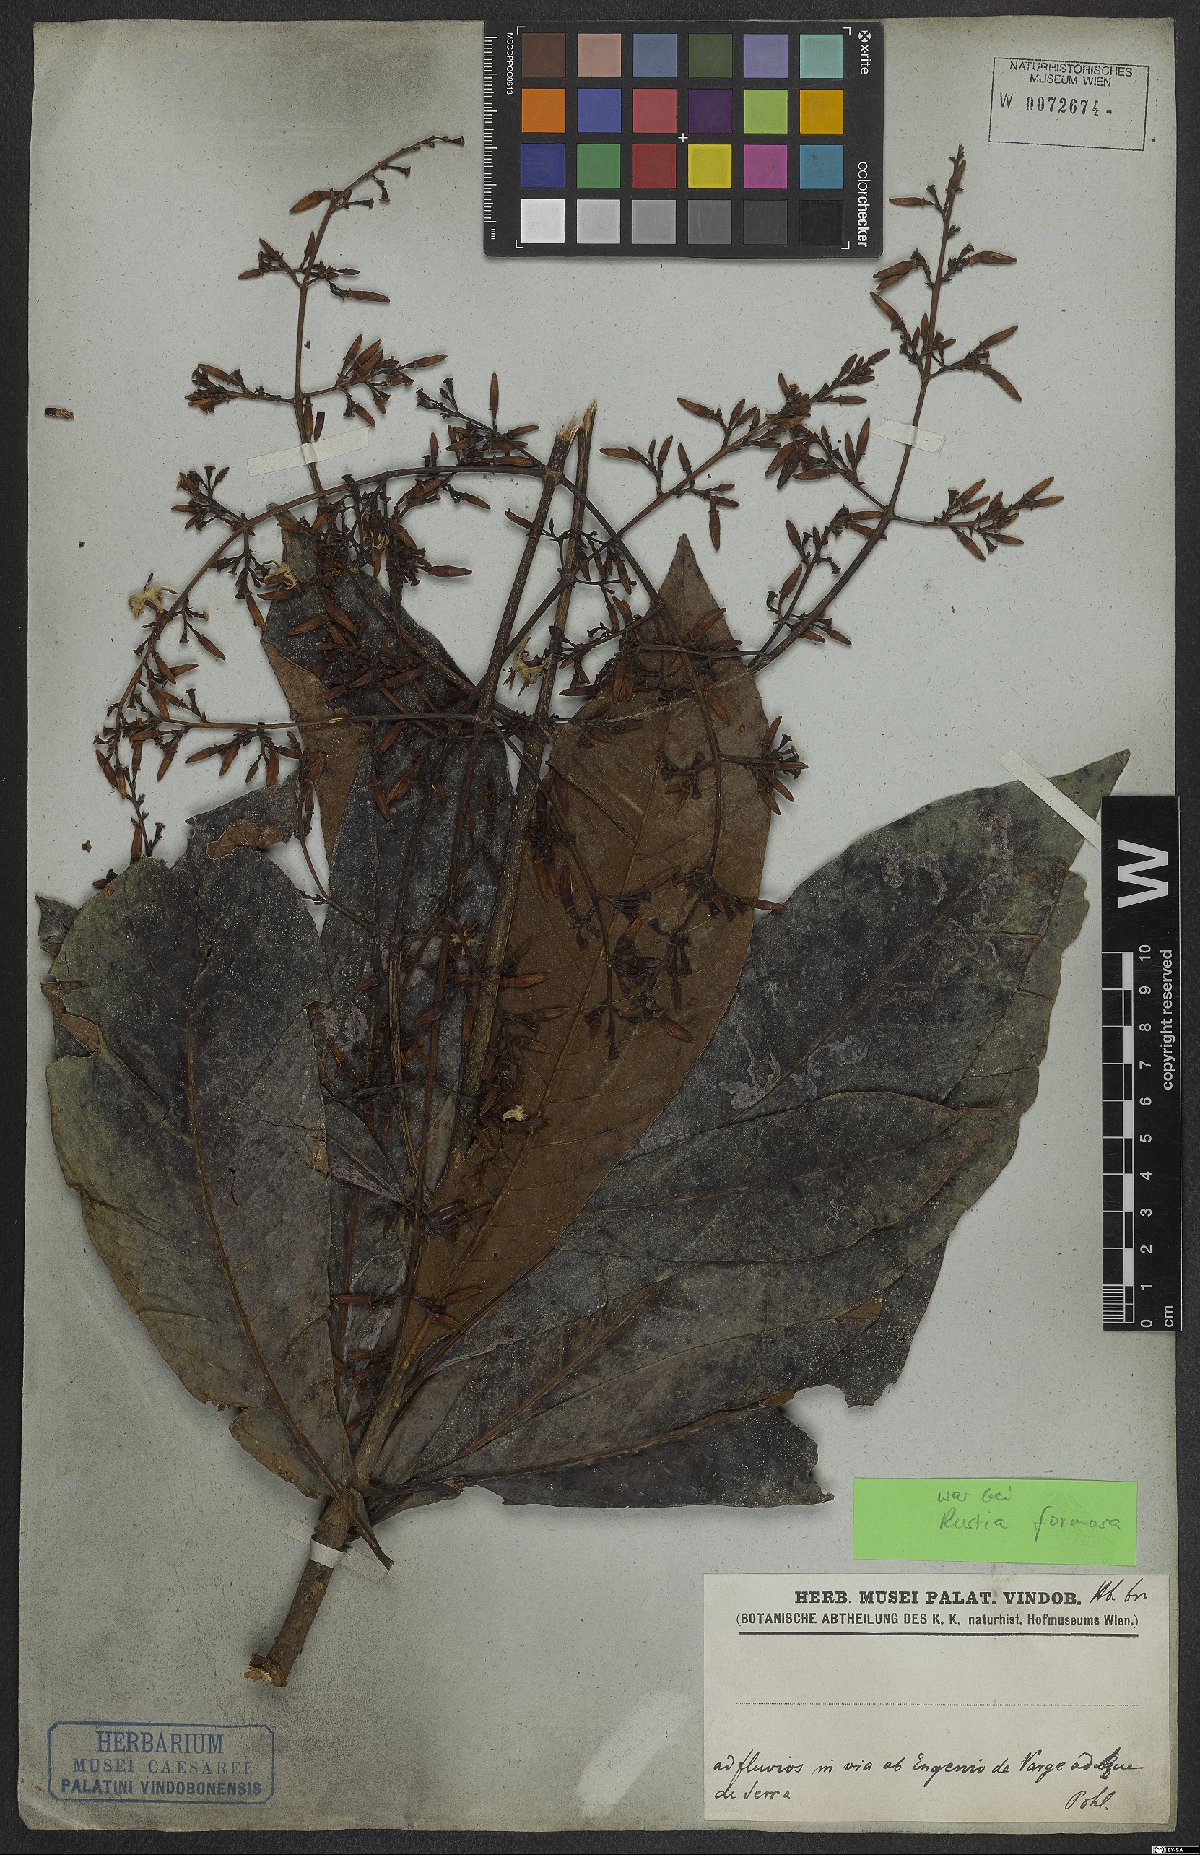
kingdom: Plantae
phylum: Tracheophyta
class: Magnoliopsida
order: Gentianales
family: Rubiaceae
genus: Rustia
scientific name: Rustia formosa
